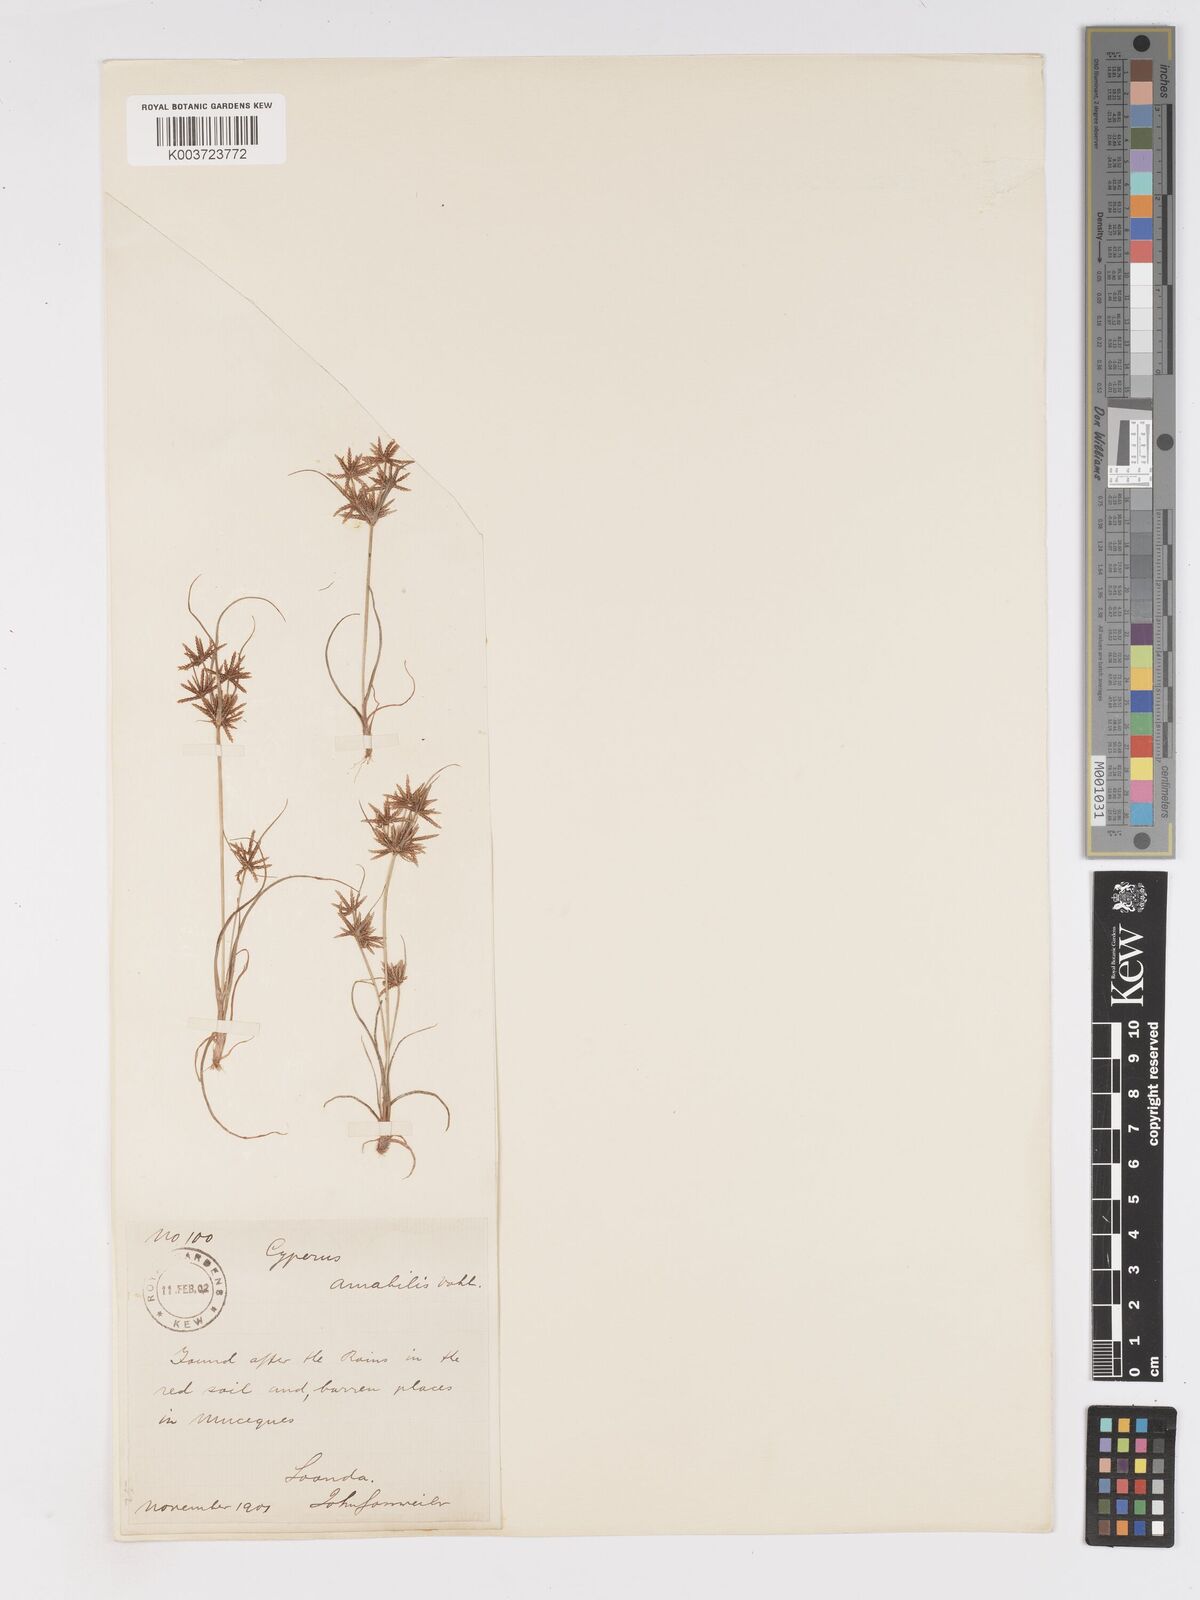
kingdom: Plantae
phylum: Tracheophyta
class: Liliopsida
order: Poales
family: Cyperaceae
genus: Cyperus
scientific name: Cyperus amabilis
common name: Foothill flat sedge
